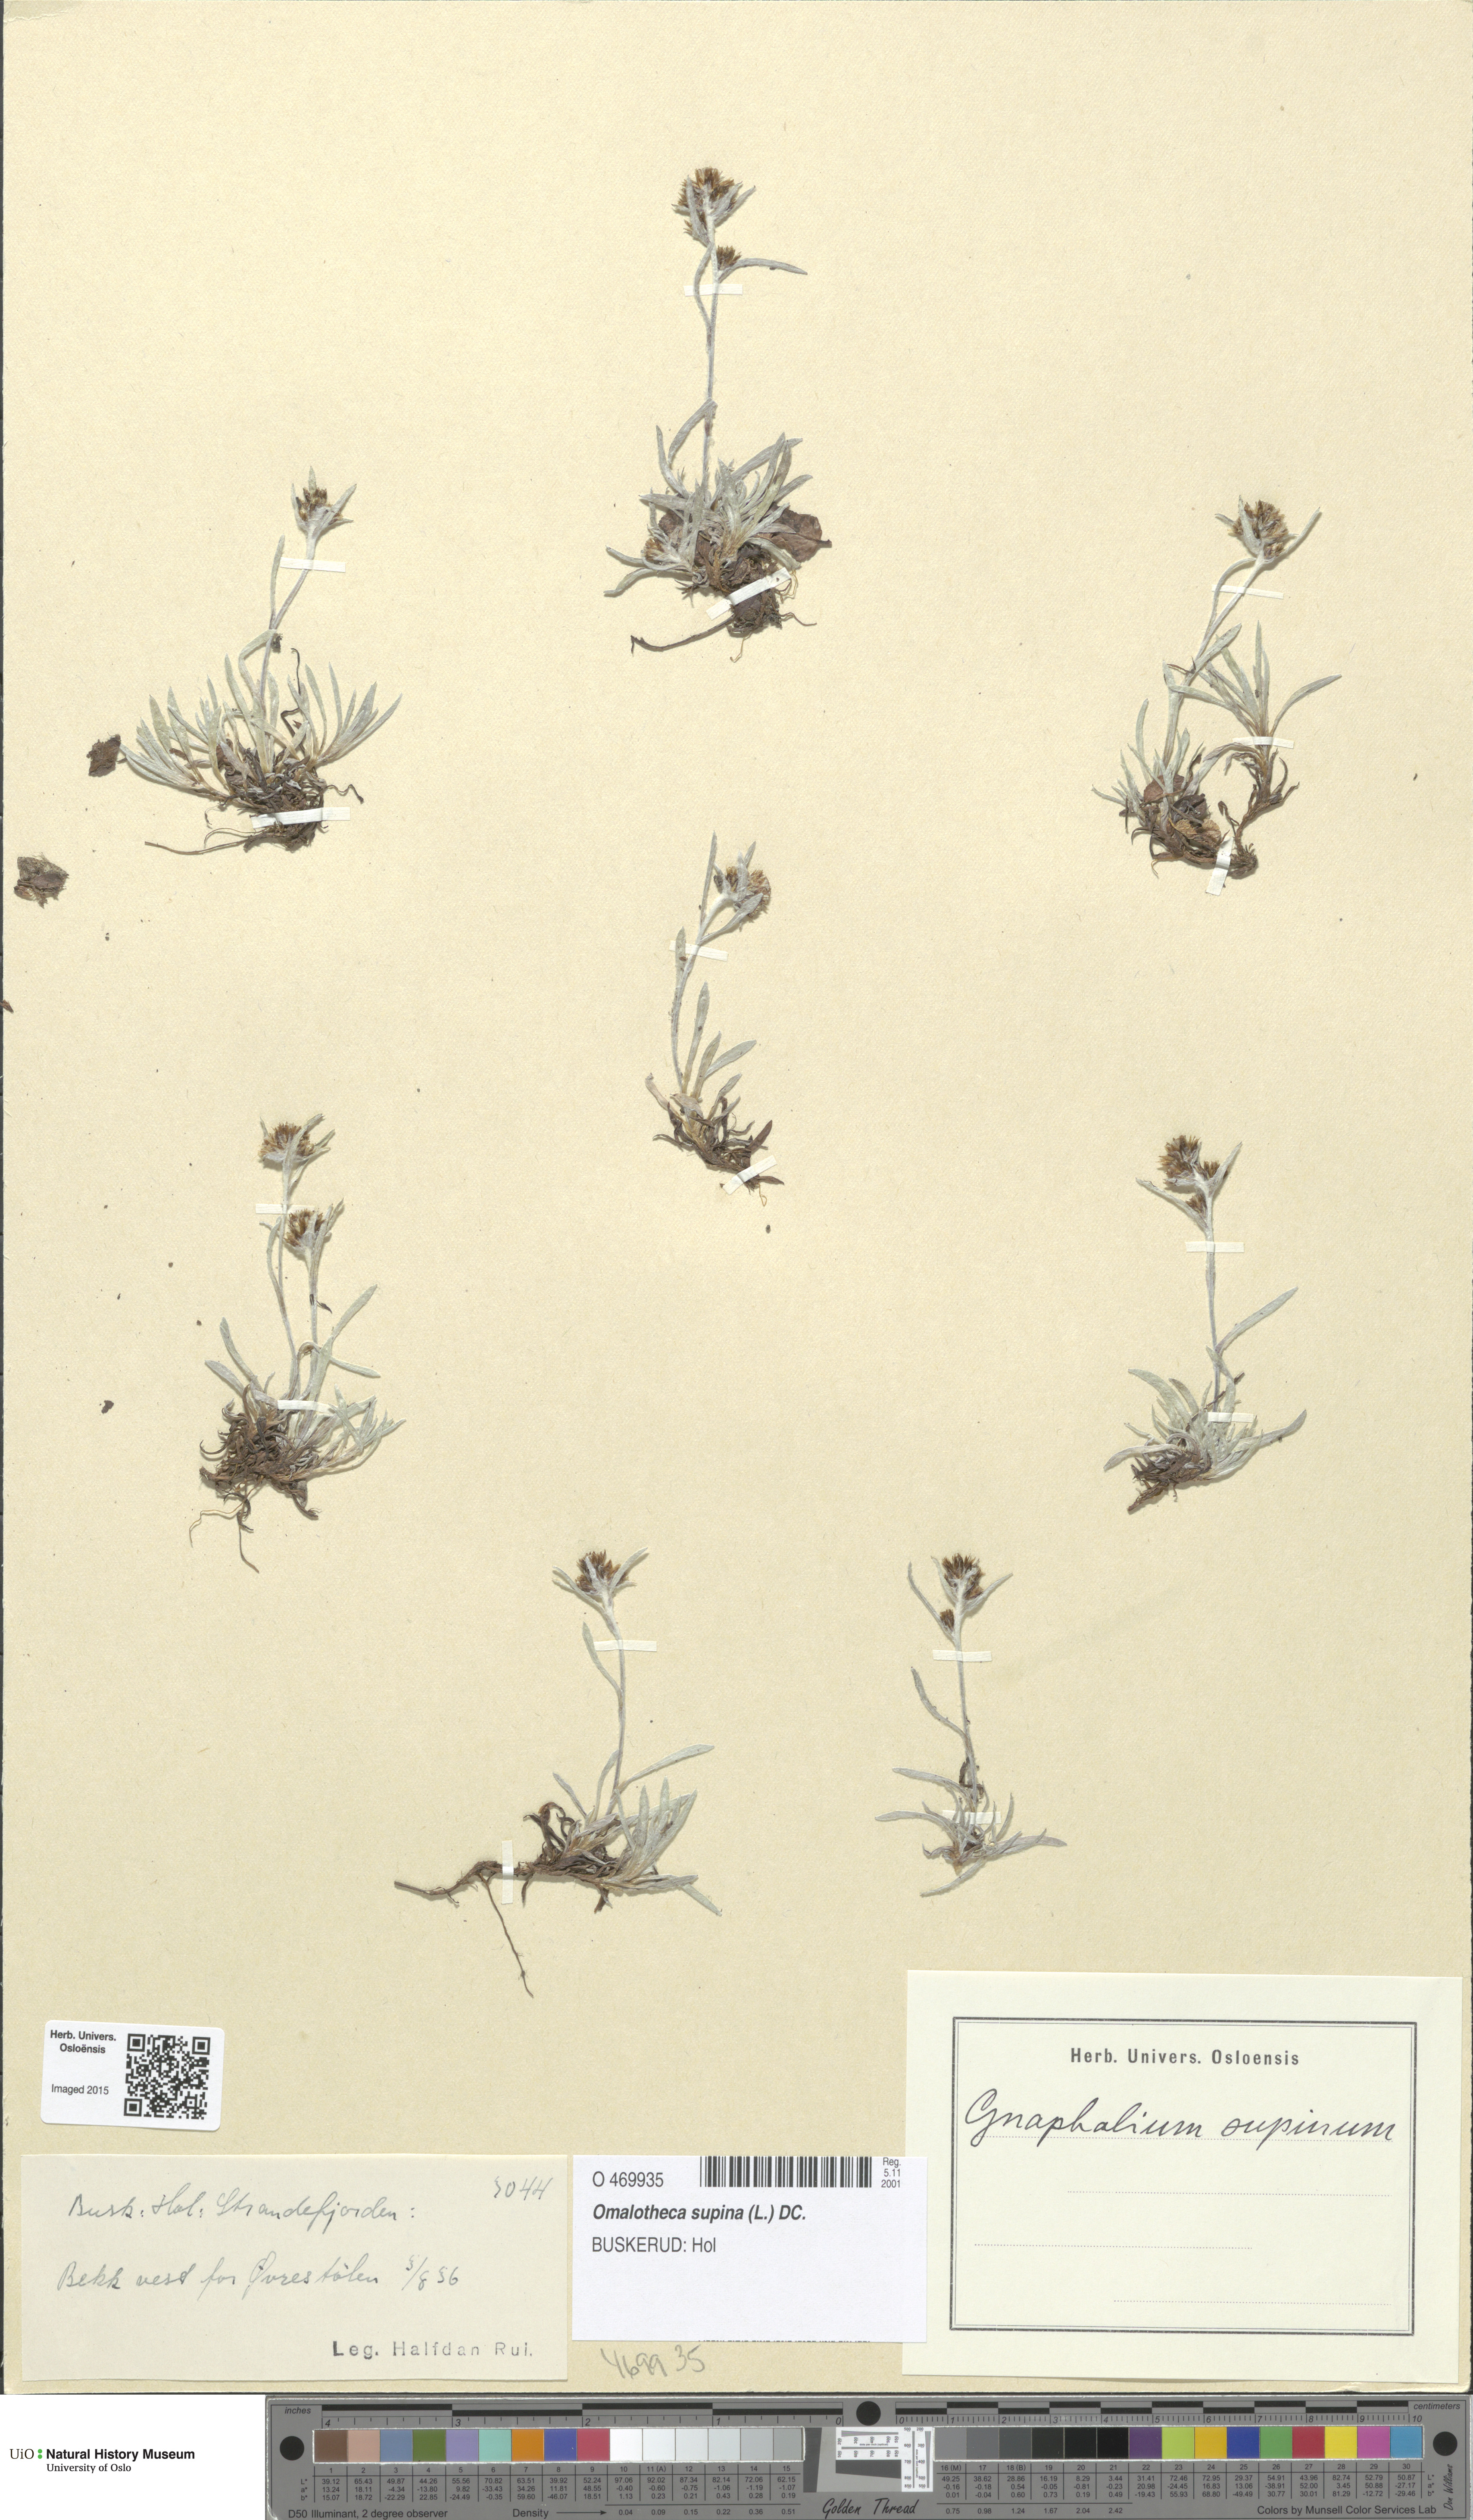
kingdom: Plantae
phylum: Tracheophyta
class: Magnoliopsida
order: Asterales
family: Asteraceae
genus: Omalotheca
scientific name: Omalotheca supina
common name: Alpine arctic-cudweed
